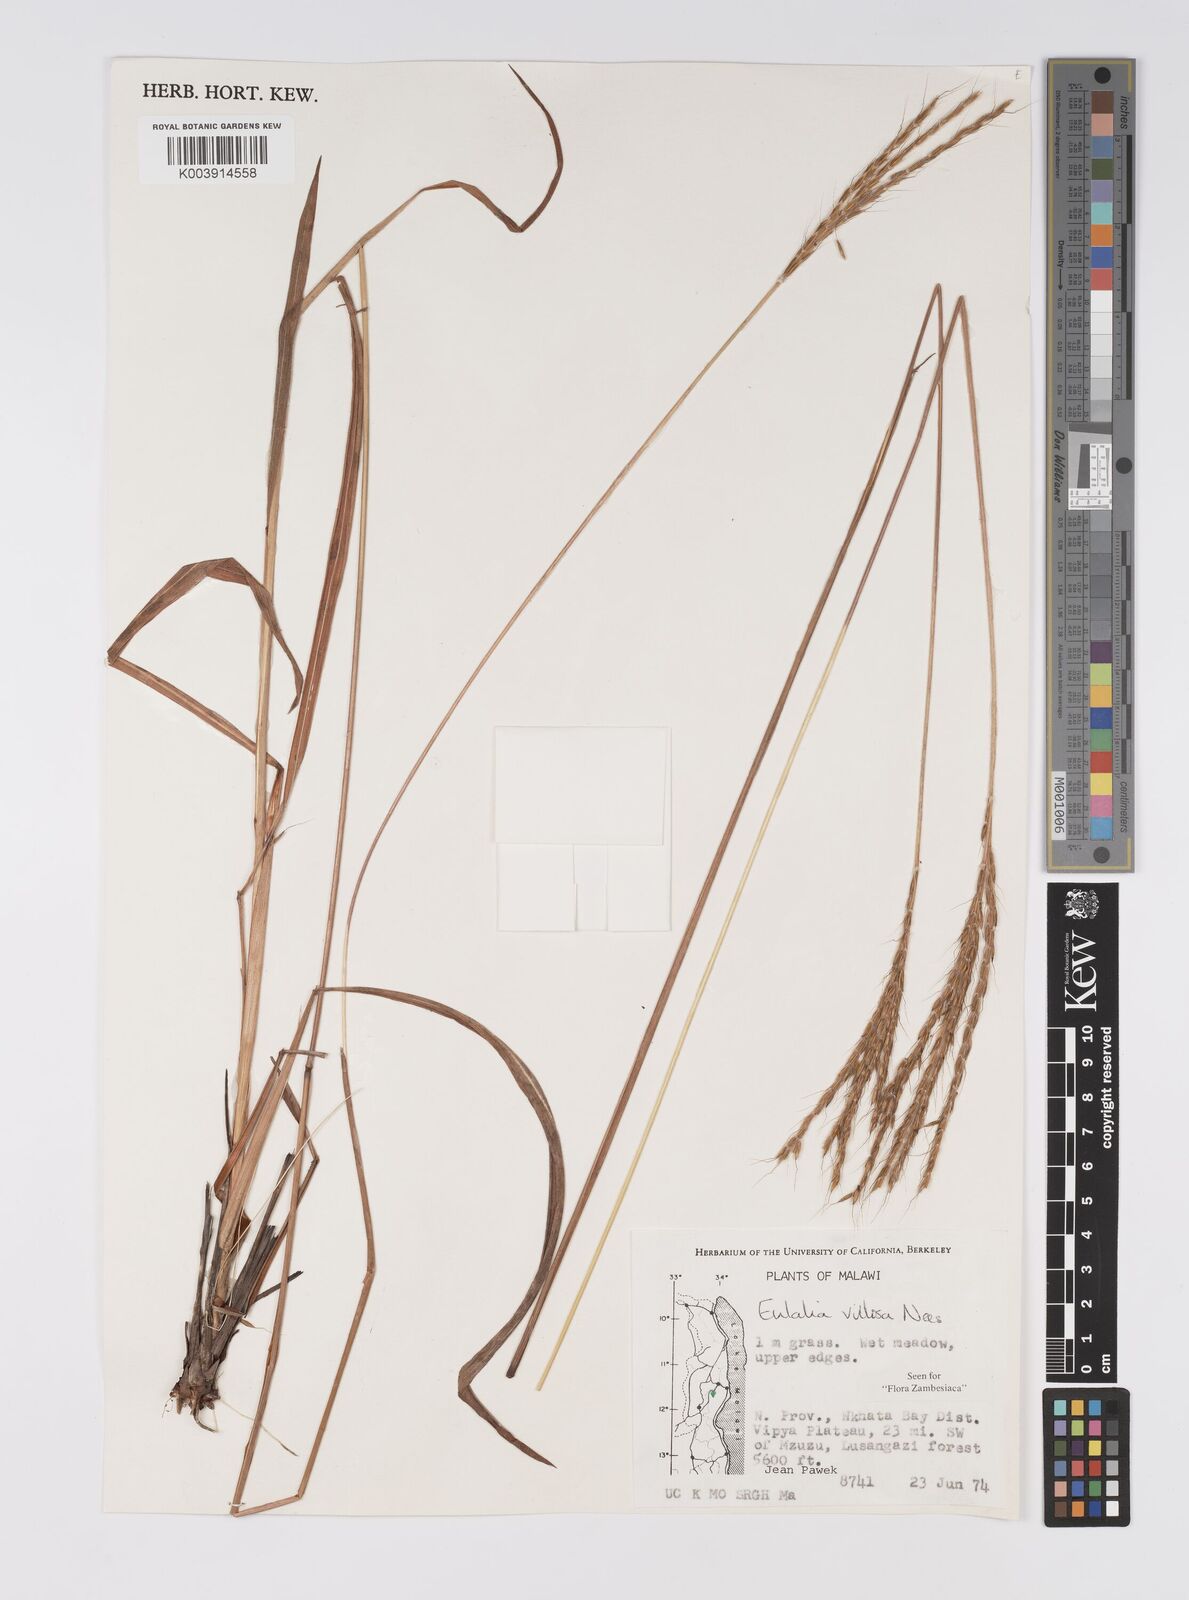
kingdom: Plantae
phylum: Tracheophyta
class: Liliopsida
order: Poales
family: Poaceae
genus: Eulalia
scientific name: Eulalia villosa
